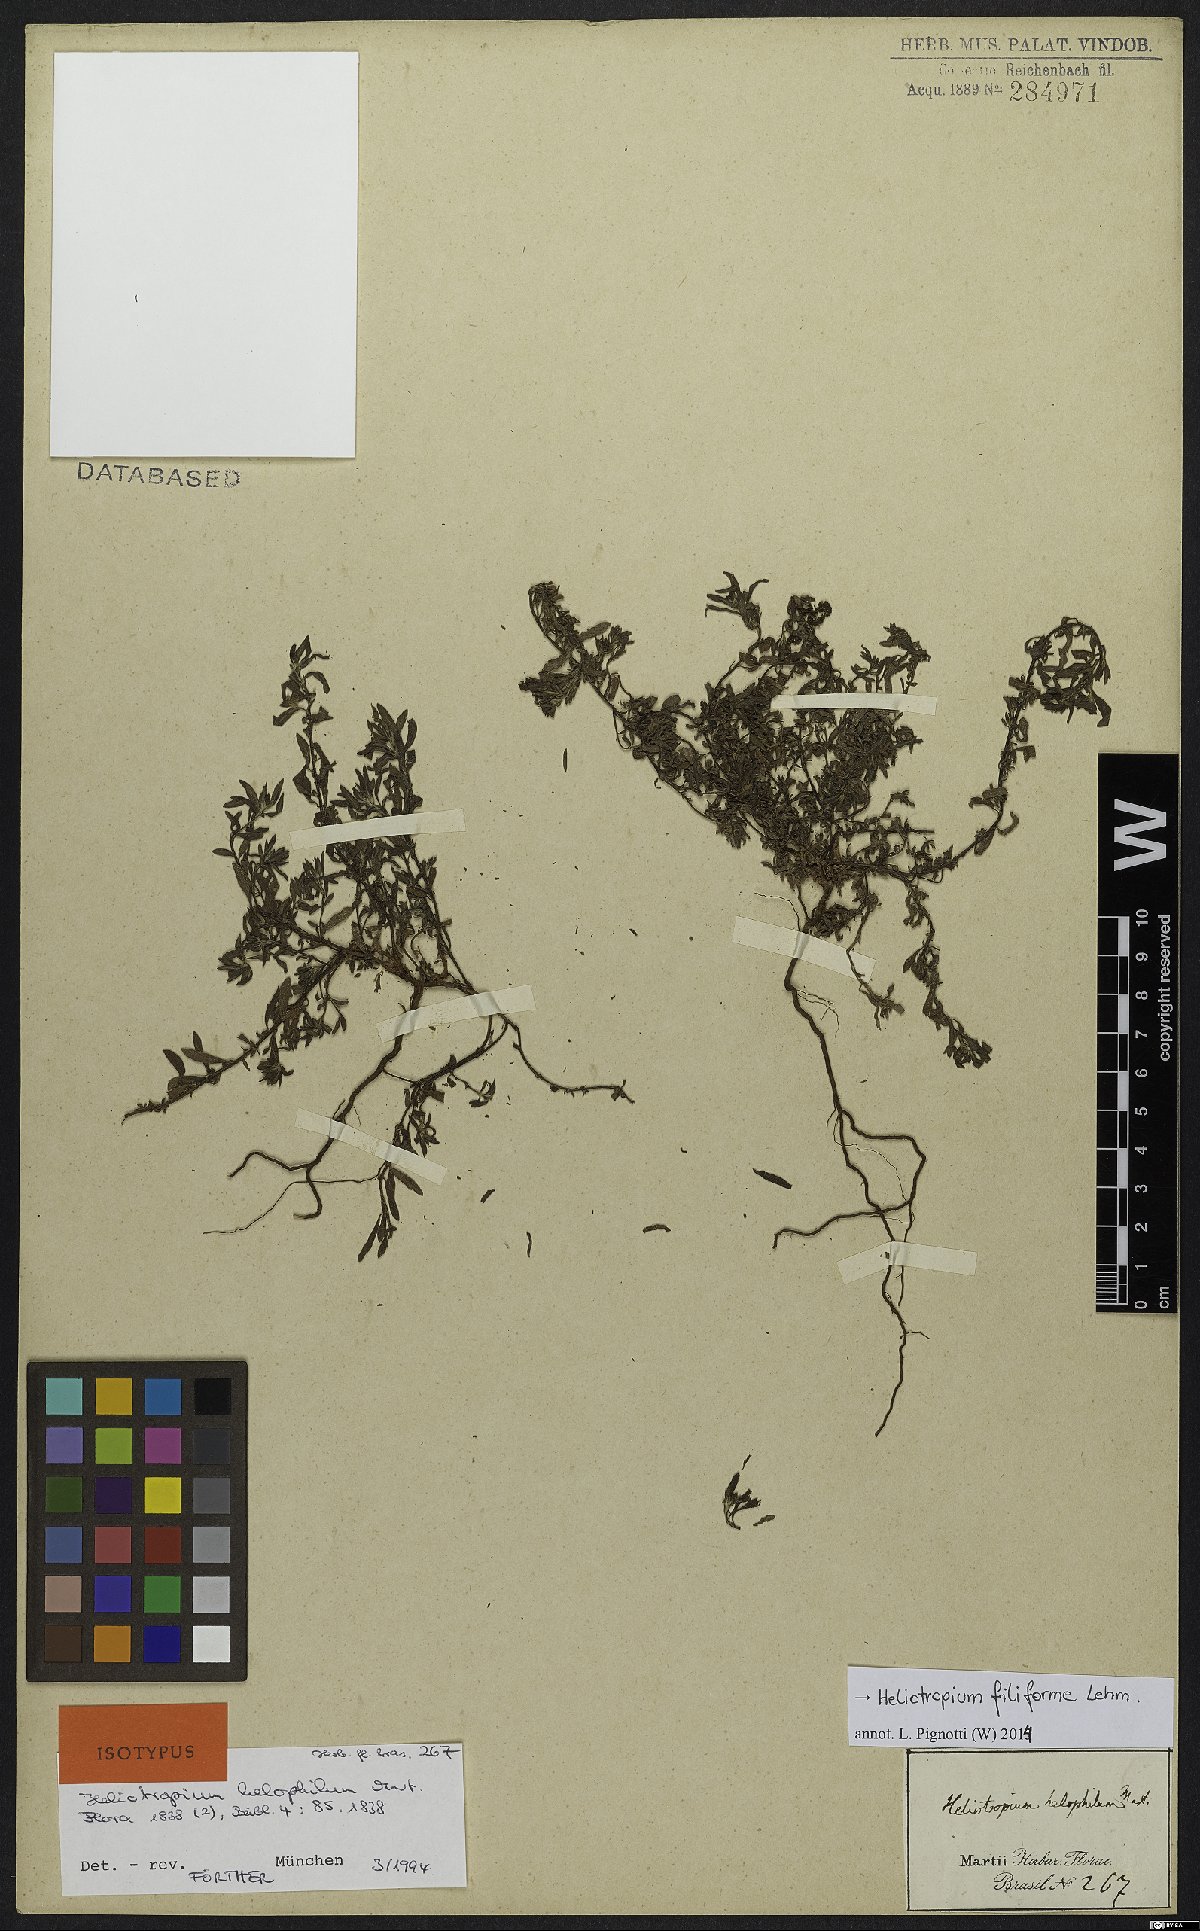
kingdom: Plantae
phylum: Tracheophyta
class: Magnoliopsida
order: Boraginales
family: Heliotropiaceae
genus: Euploca
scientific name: Euploca filiformis
